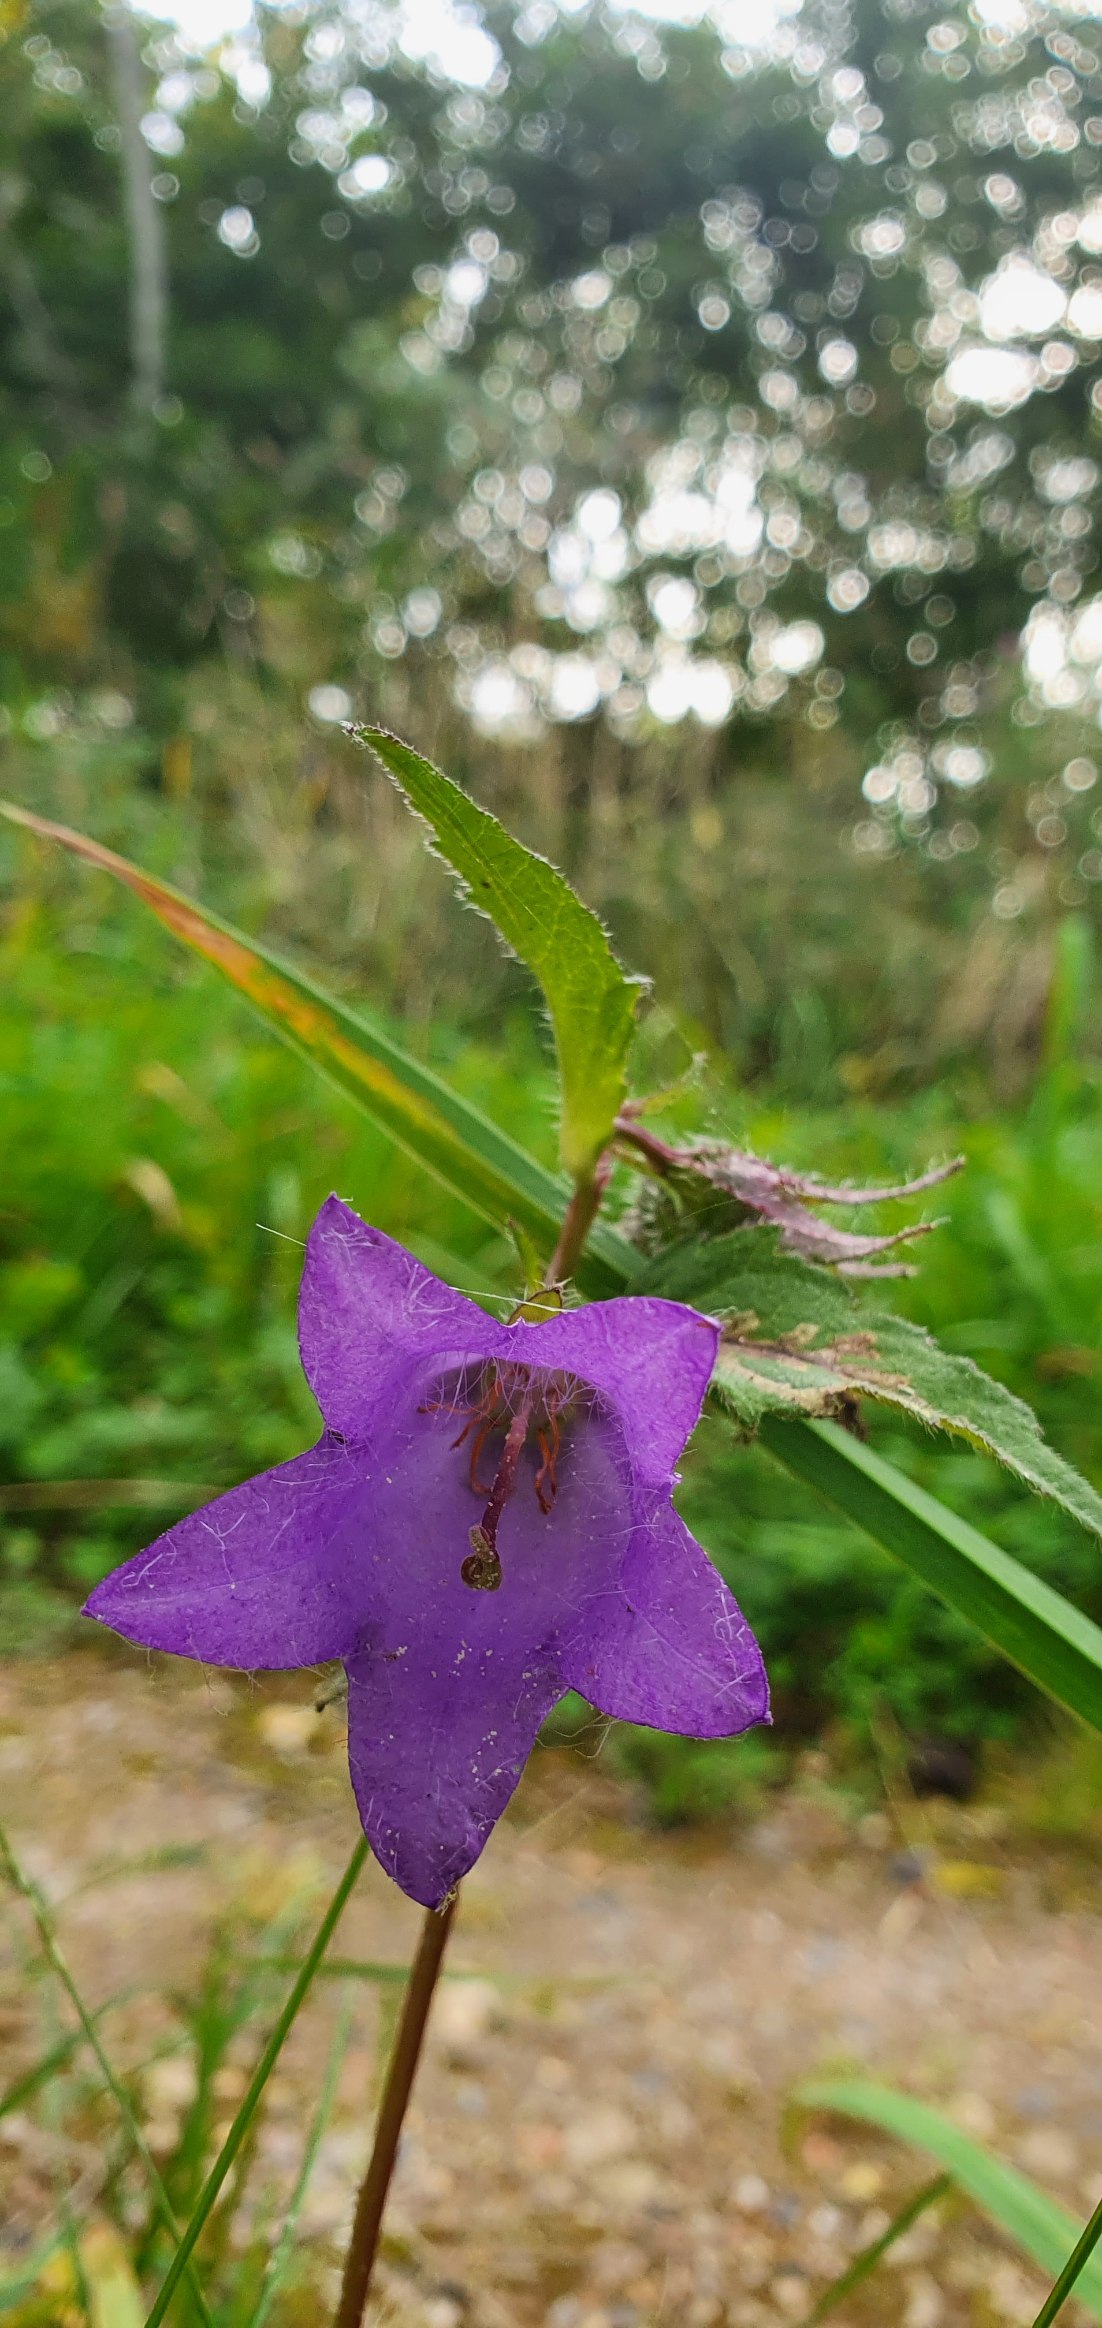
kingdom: Plantae
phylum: Tracheophyta
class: Magnoliopsida
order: Asterales
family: Campanulaceae
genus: Campanula
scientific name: Campanula trachelium
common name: Nælde-klokke
